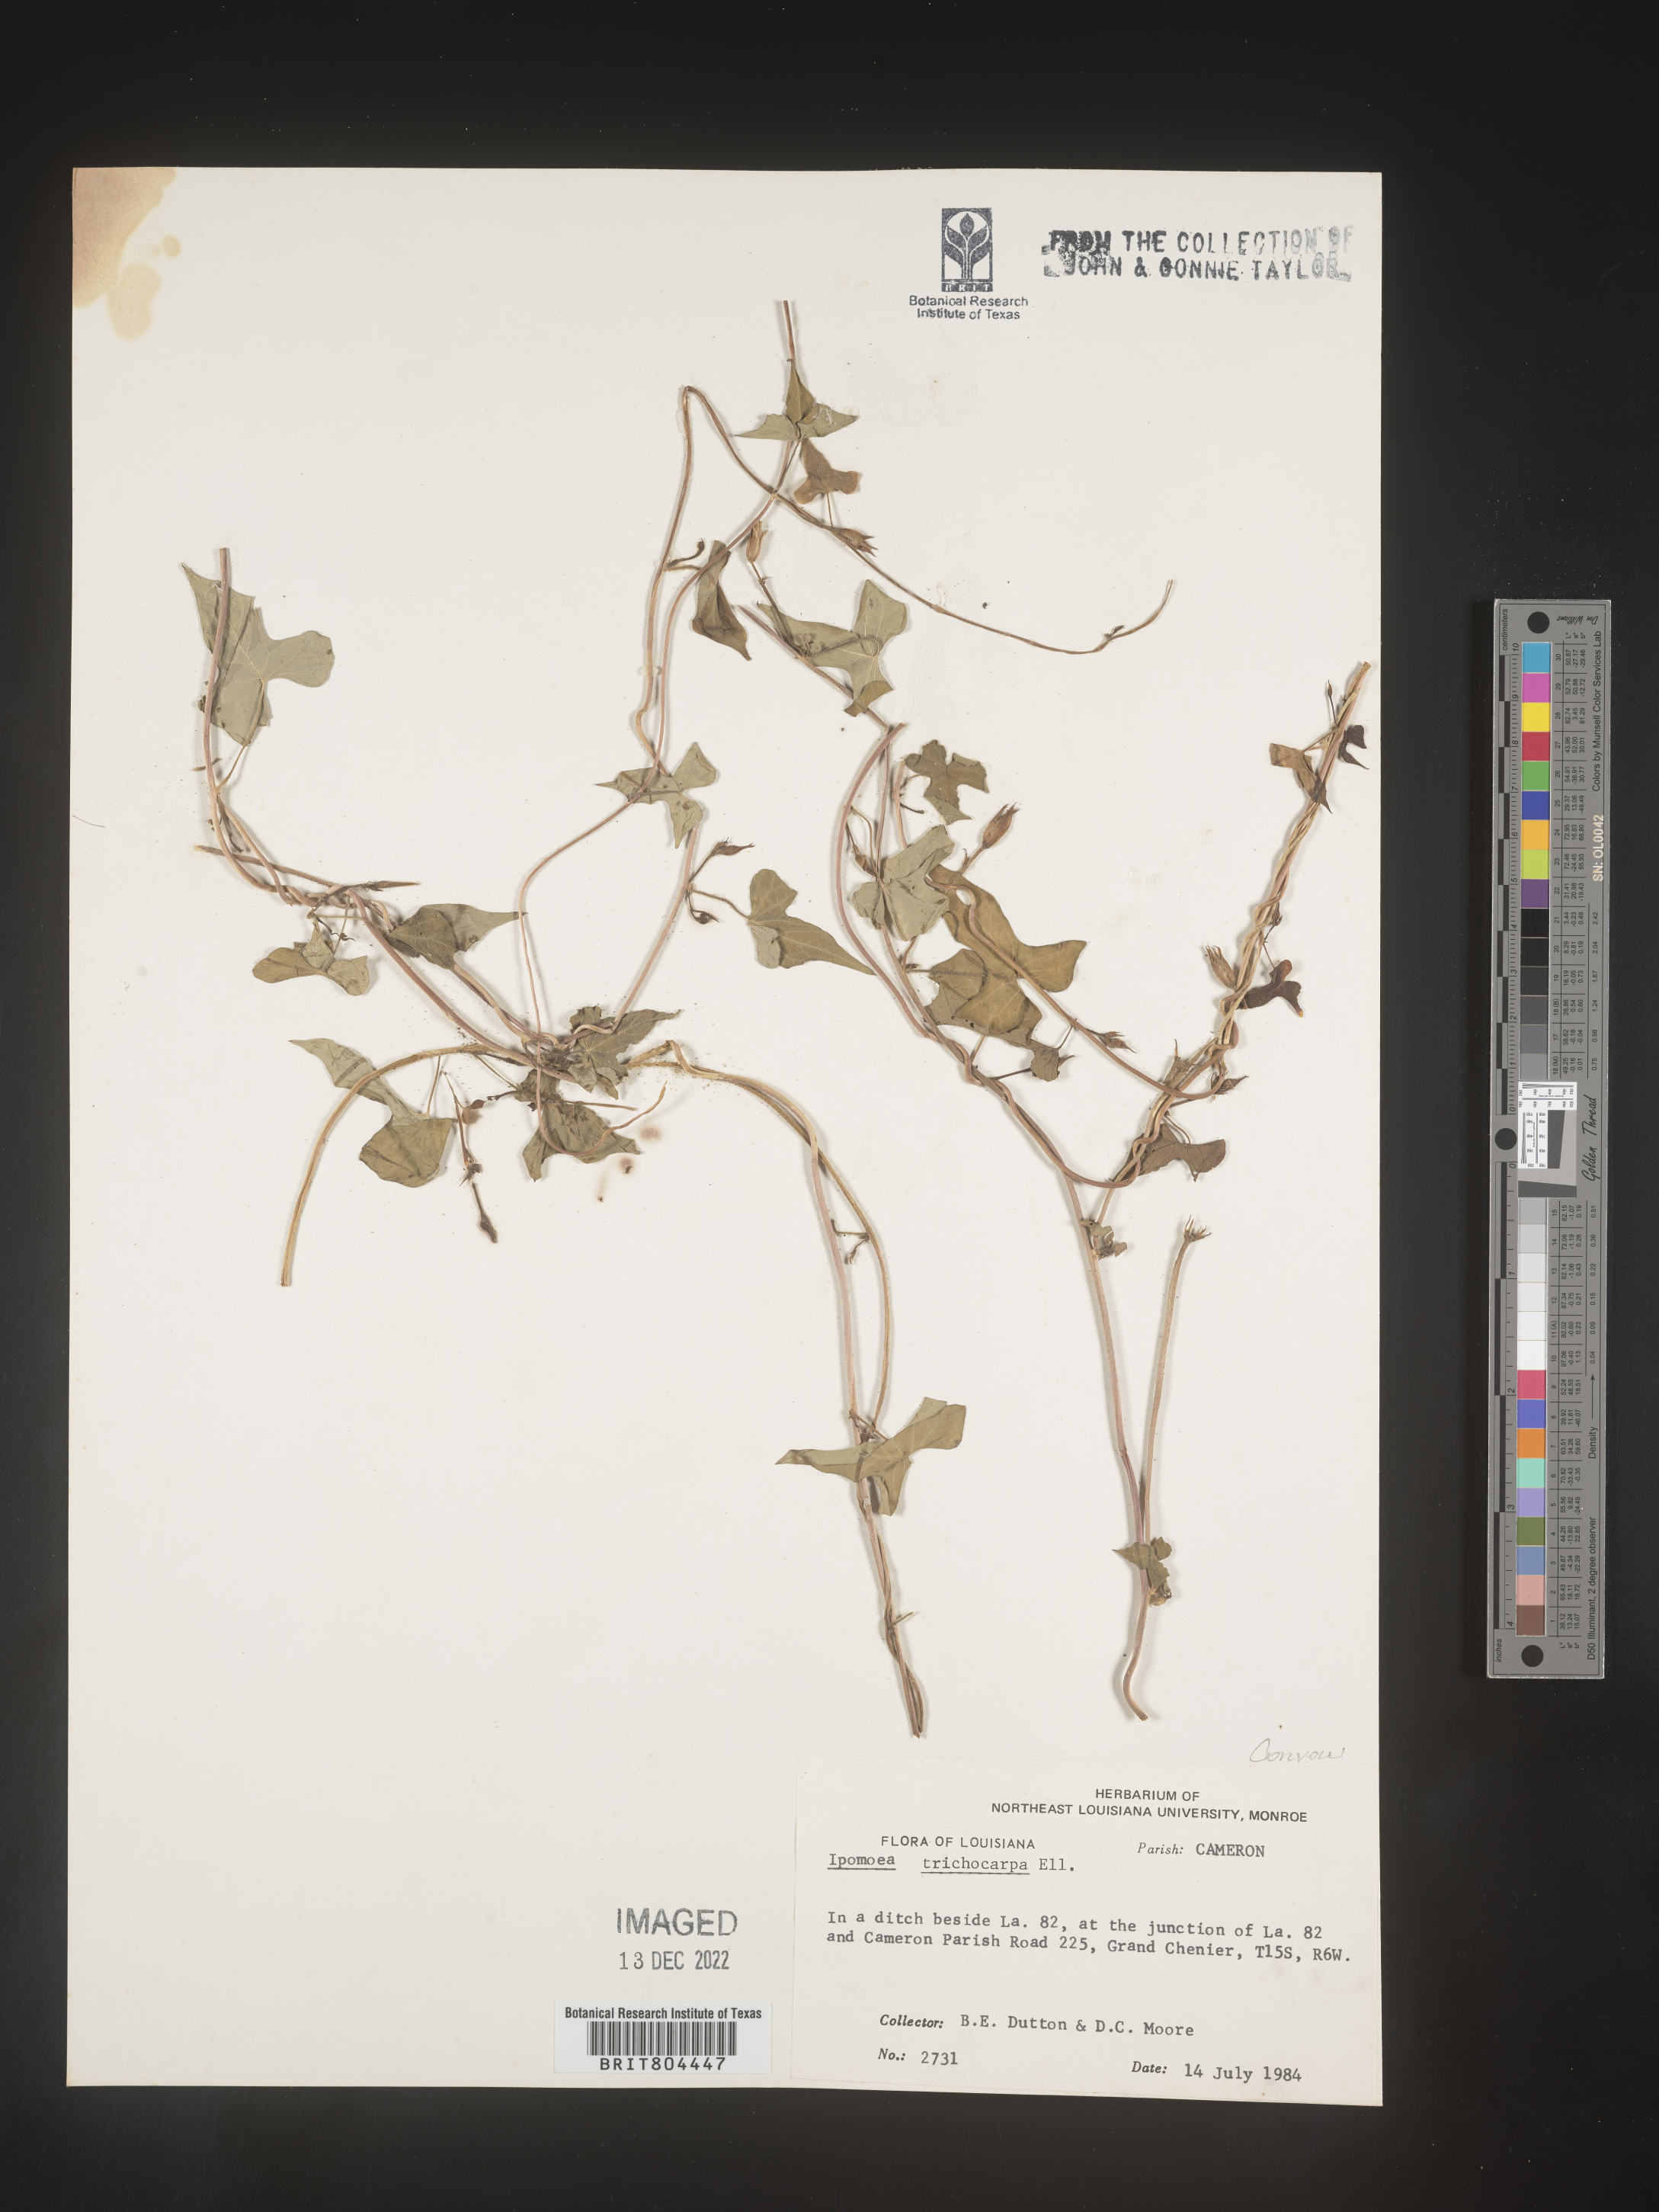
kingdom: Plantae
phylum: Tracheophyta
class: Magnoliopsida
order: Solanales
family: Convolvulaceae
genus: Ipomoea
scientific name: Ipomoea cordatotriloba
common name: Cotton morning glory
